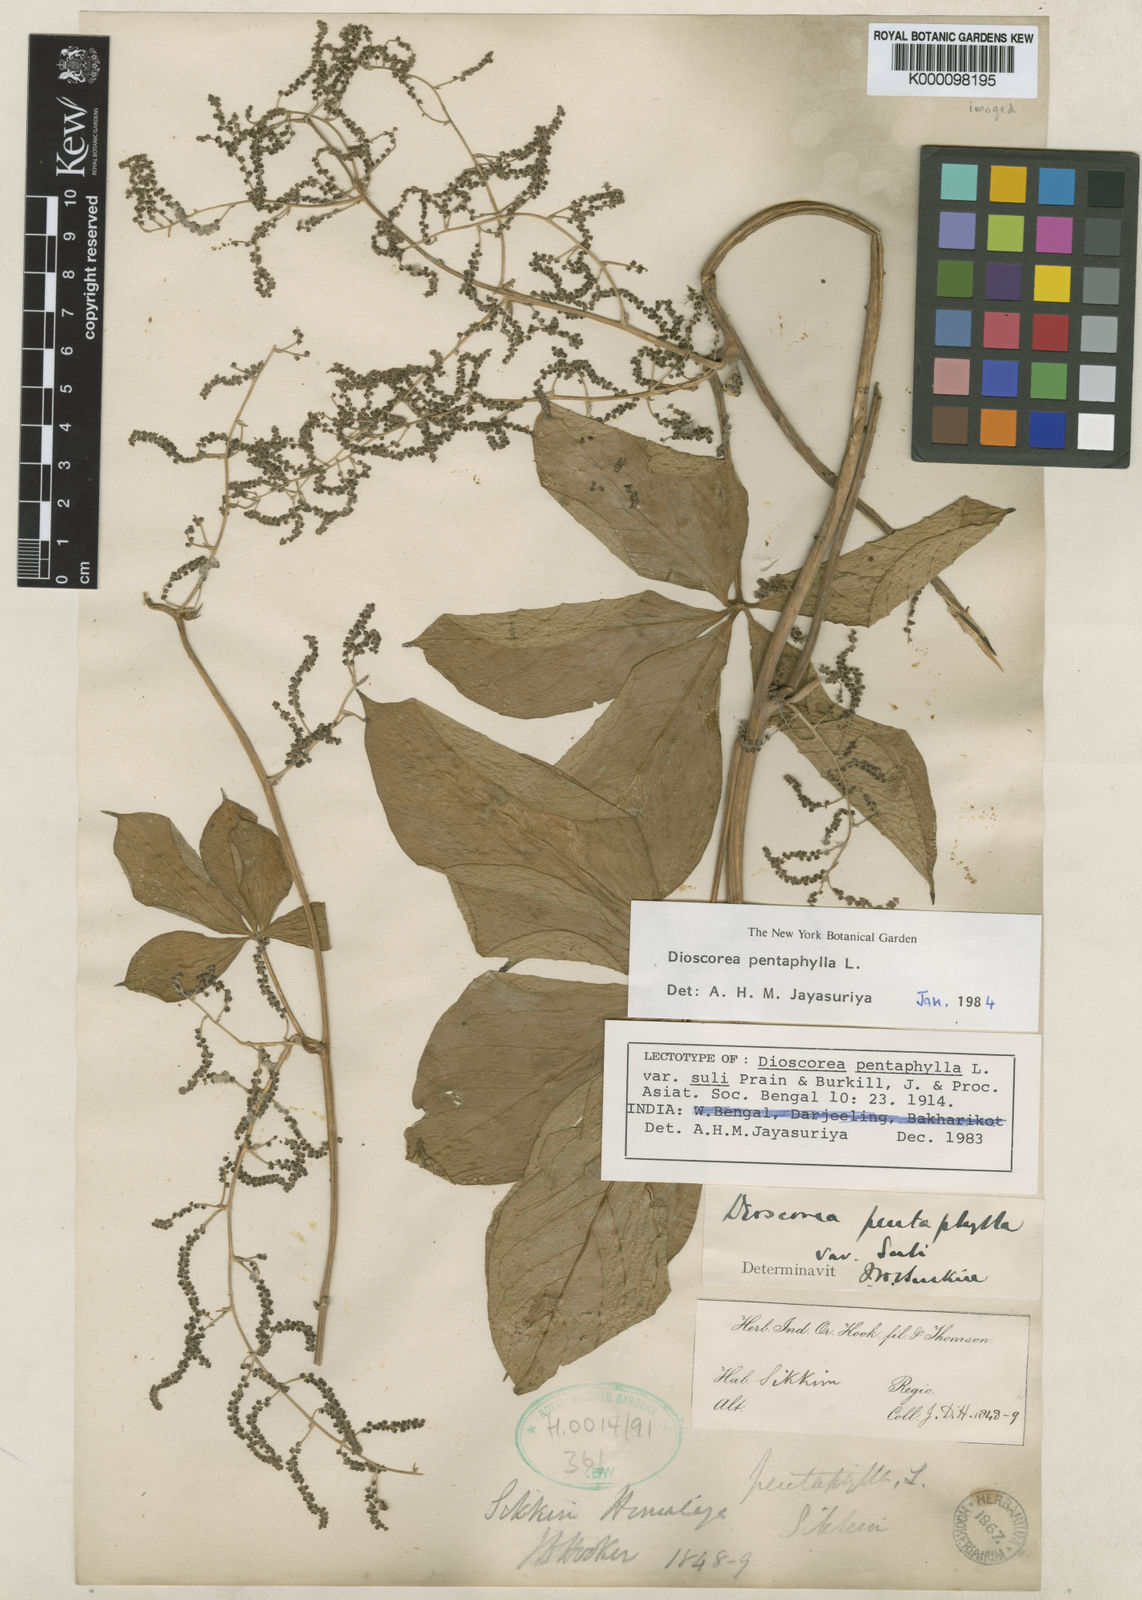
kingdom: Plantae
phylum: Tracheophyta
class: Liliopsida
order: Dioscoreales
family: Dioscoreaceae
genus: Dioscorea
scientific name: Dioscorea pentaphylla
